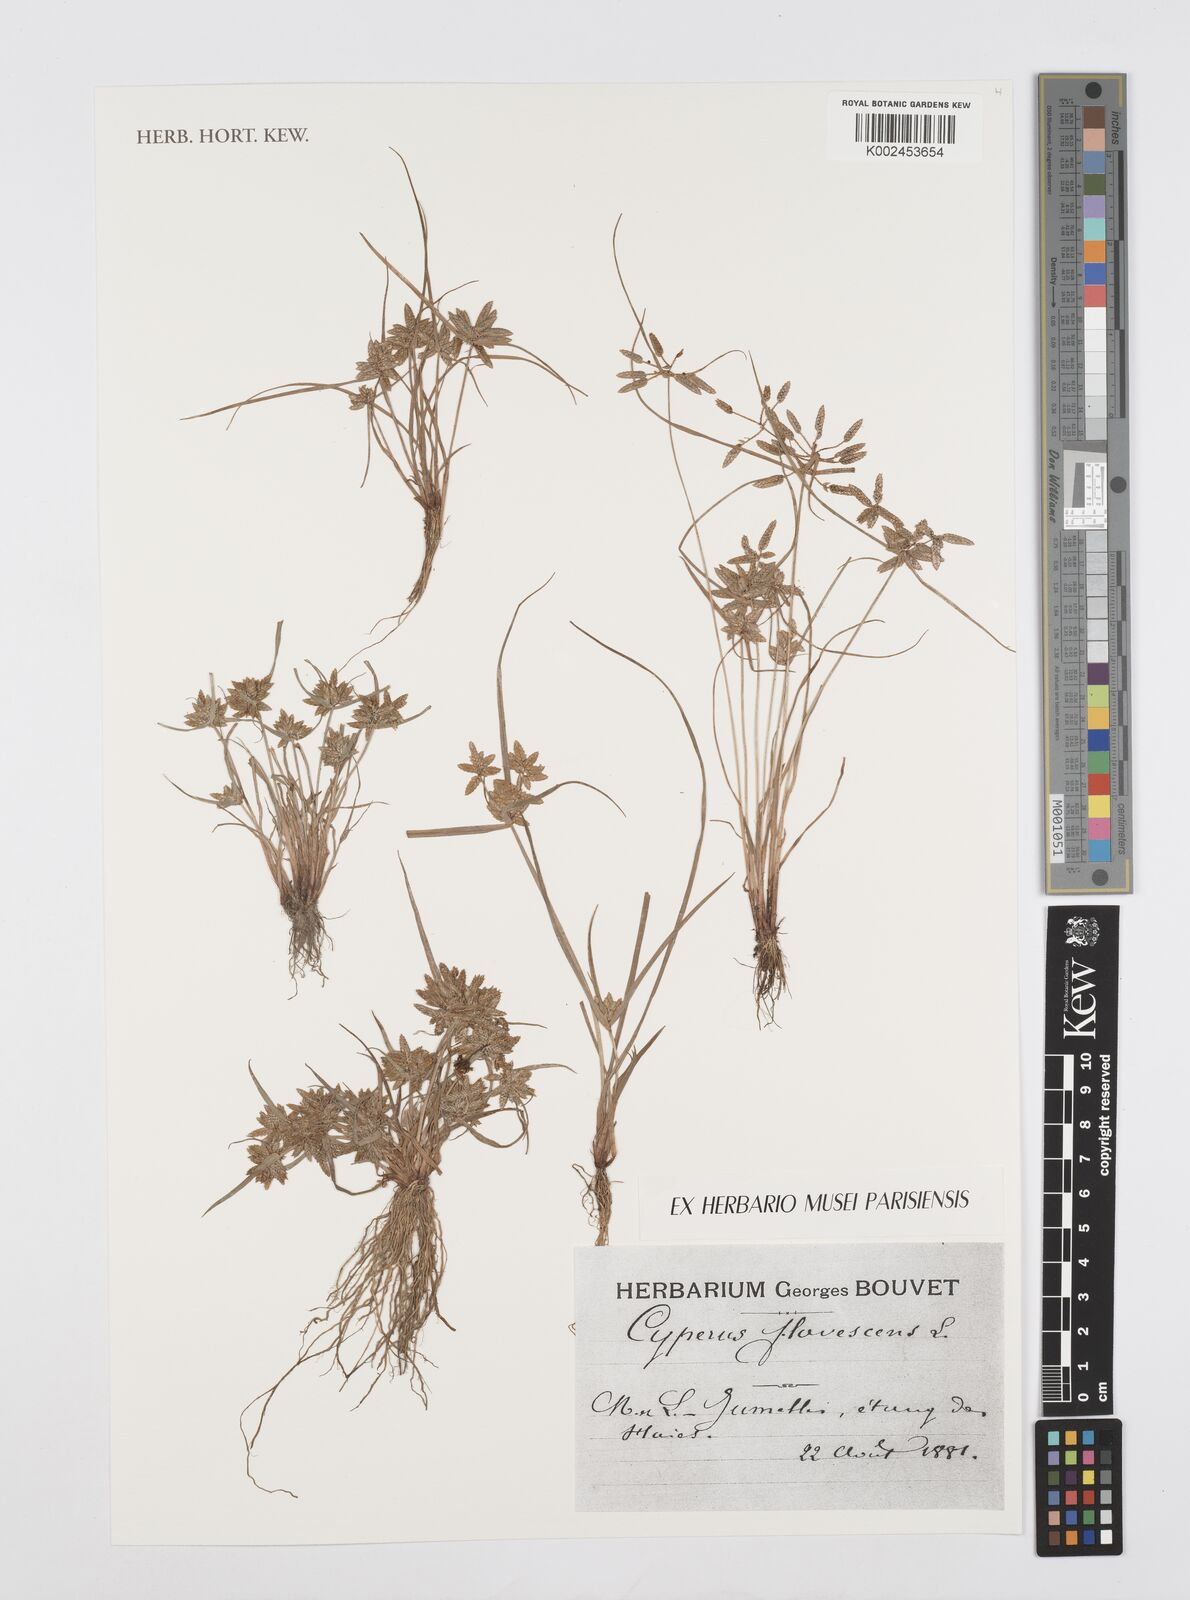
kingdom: Plantae
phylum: Tracheophyta
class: Liliopsida
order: Poales
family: Cyperaceae
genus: Cyperus
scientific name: Cyperus flavescens
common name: Yellow galingale
